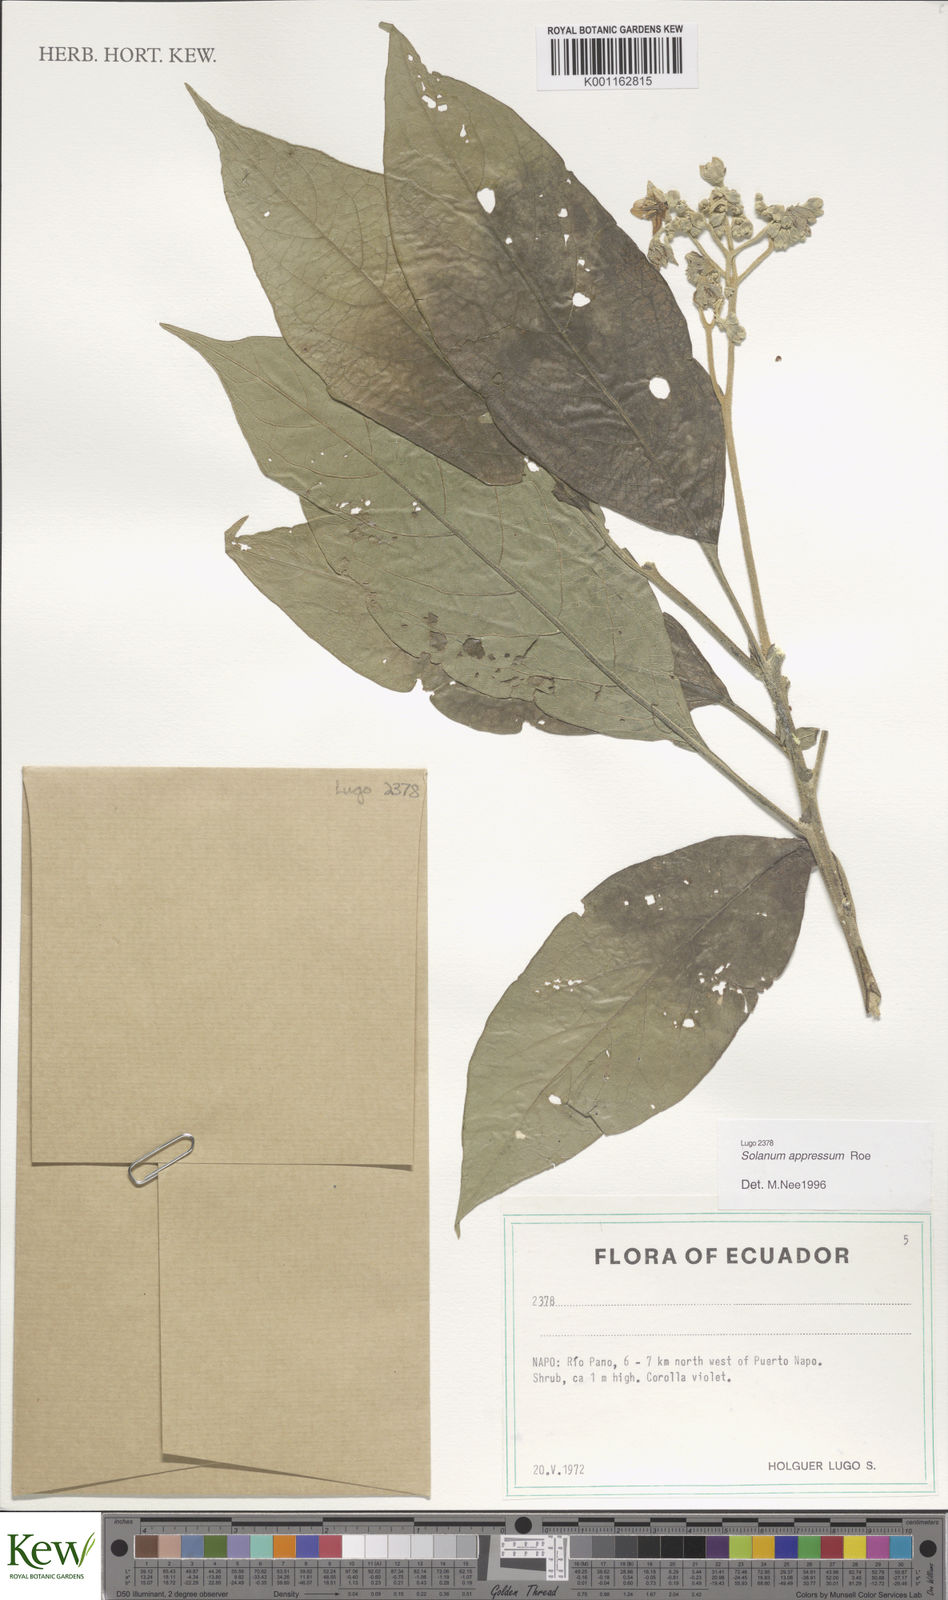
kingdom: Plantae
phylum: Tracheophyta
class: Magnoliopsida
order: Solanales
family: Solanaceae
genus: Solanum
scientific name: Solanum appressum
